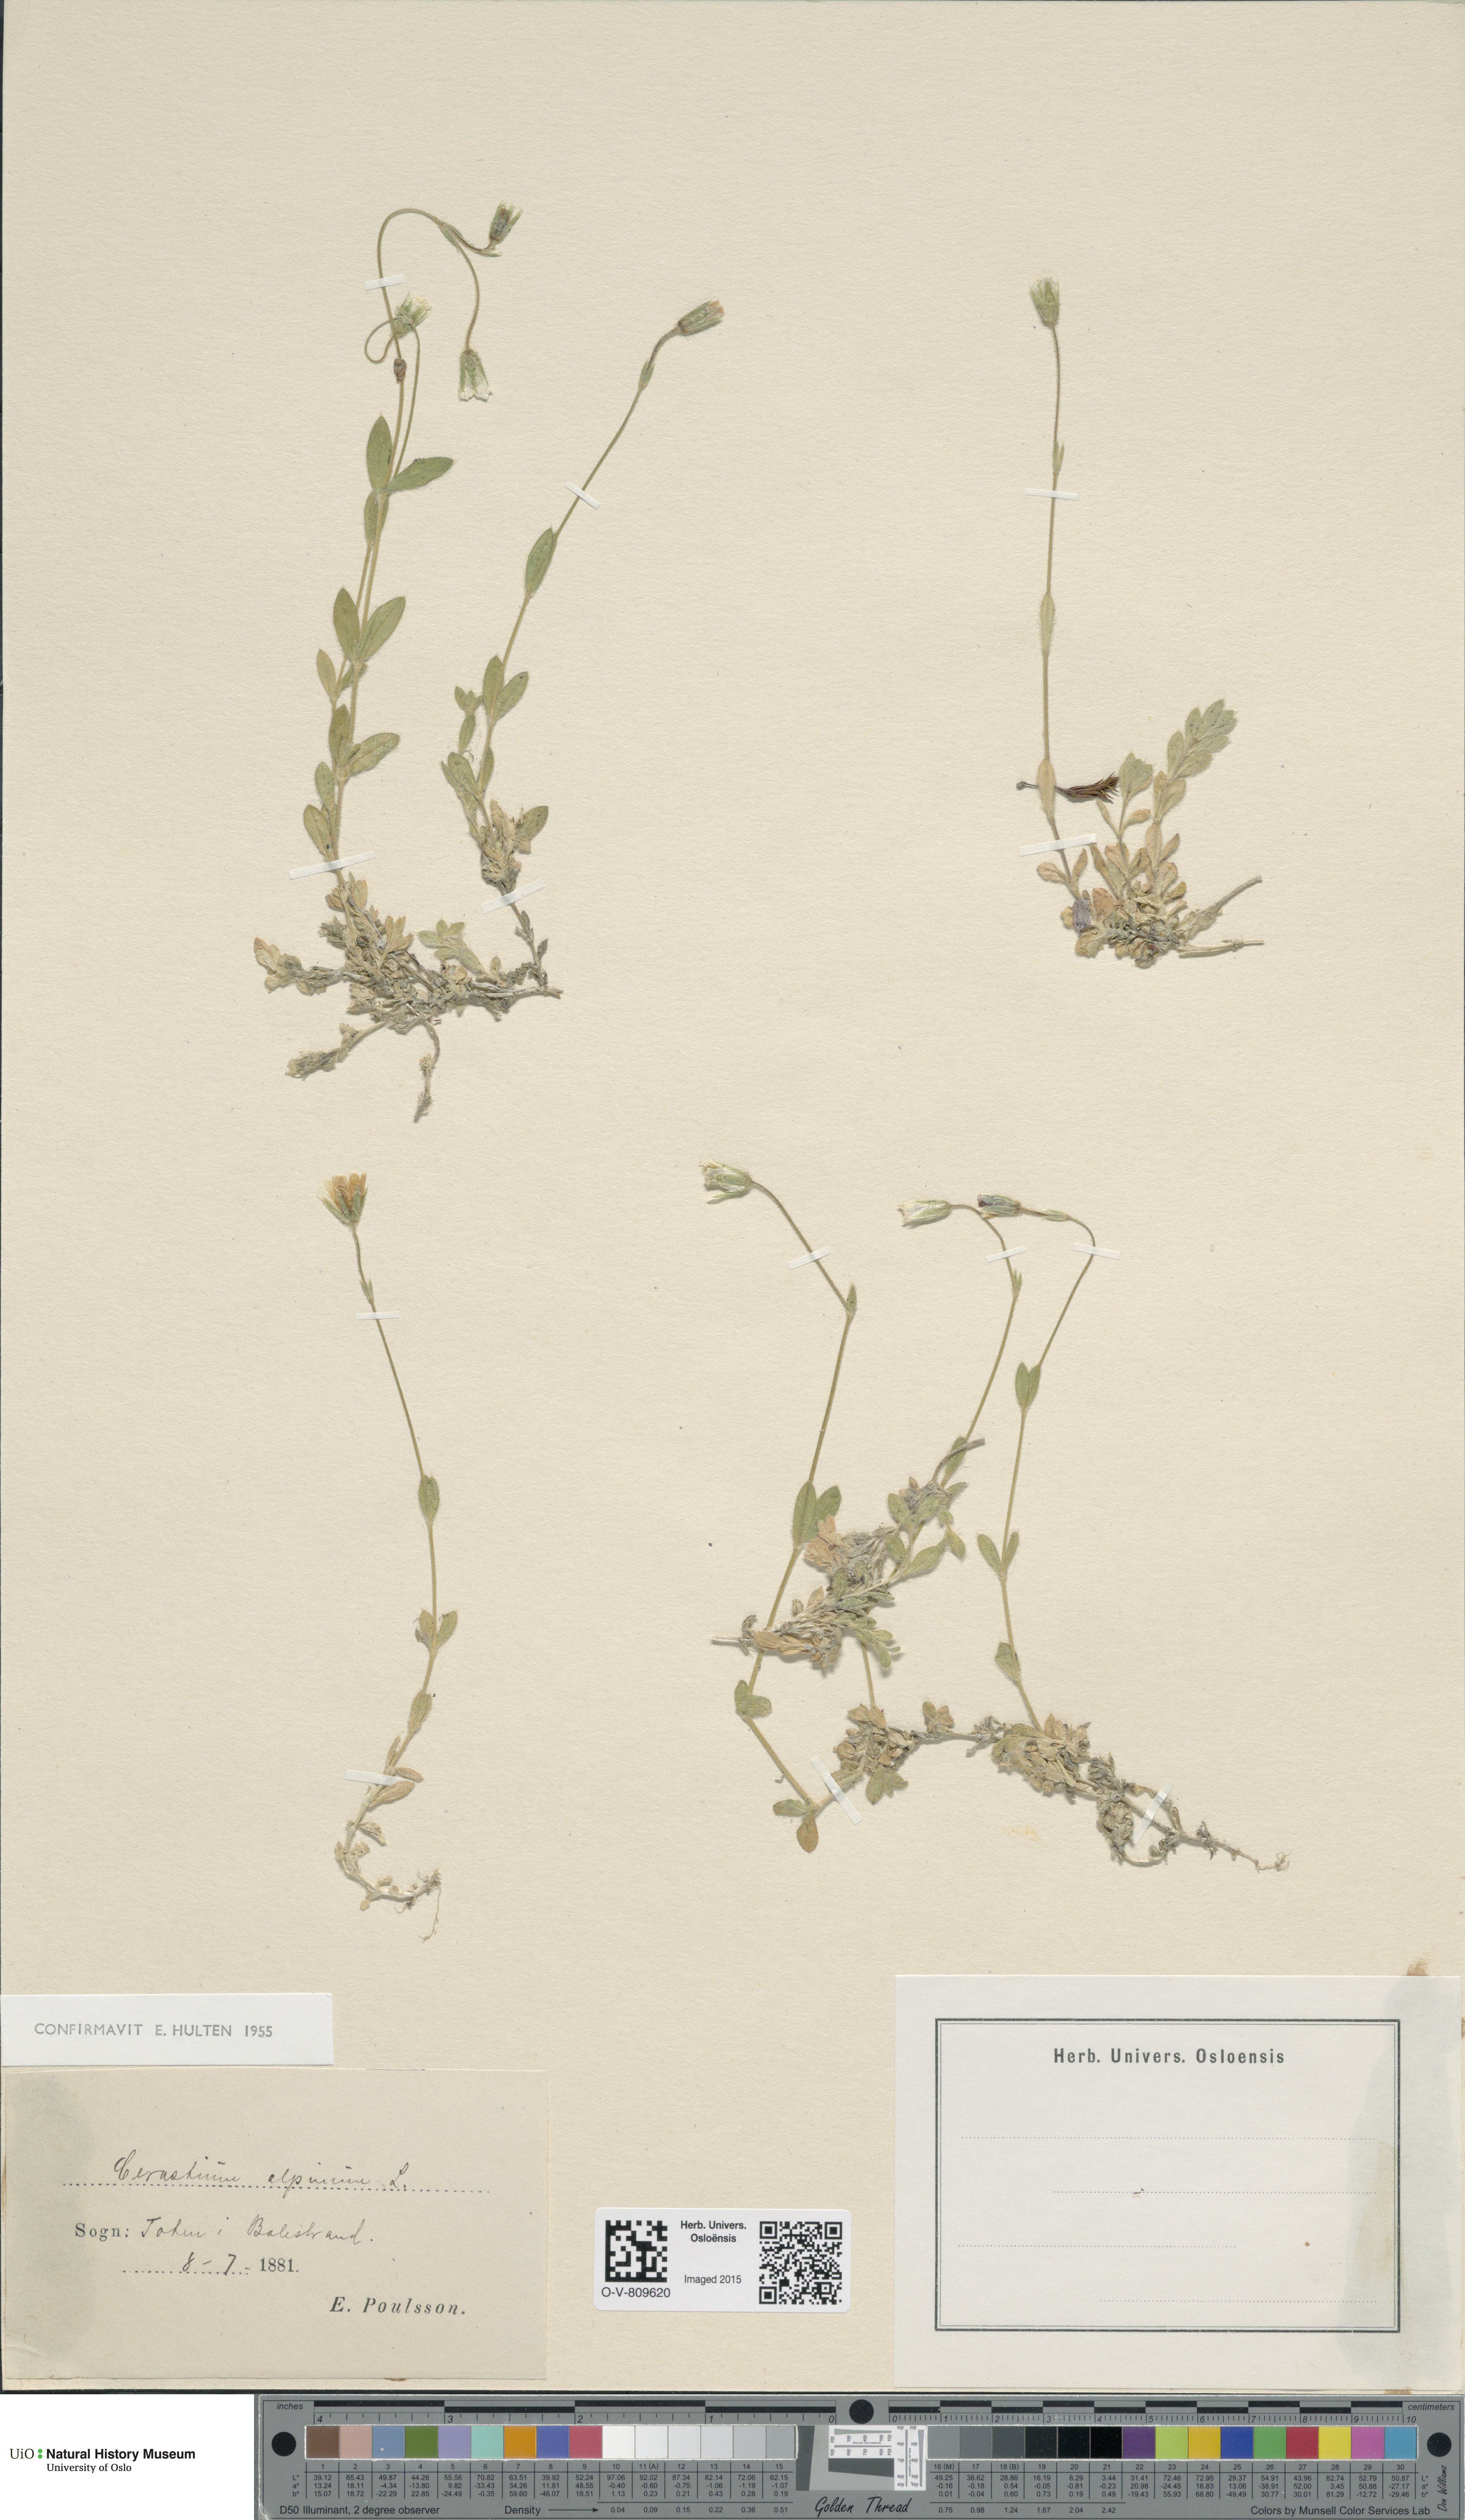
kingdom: Plantae
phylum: Tracheophyta
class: Magnoliopsida
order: Caryophyllales
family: Caryophyllaceae
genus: Cerastium
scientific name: Cerastium alpinum
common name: Alpine mouse-ear
